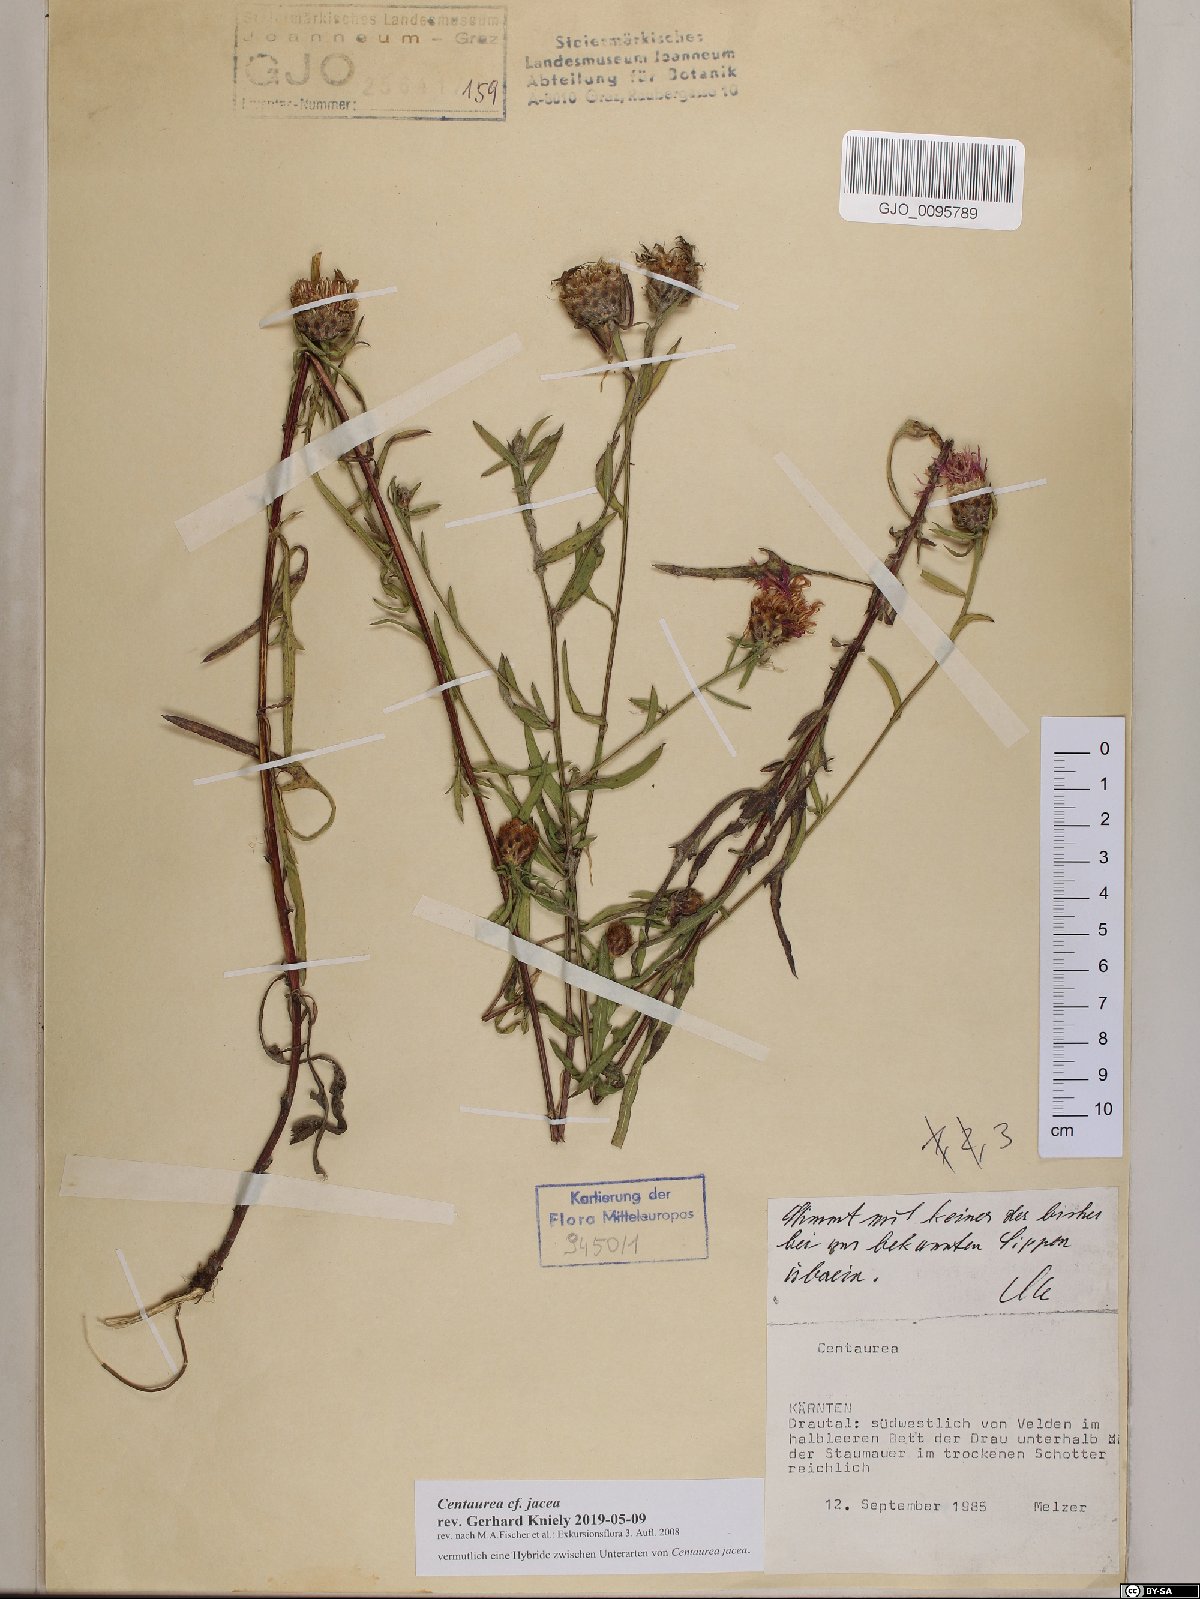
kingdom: Plantae
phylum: Tracheophyta
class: Magnoliopsida
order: Asterales
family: Asteraceae
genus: Centaurea
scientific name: Centaurea jacea
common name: Brown knapweed
